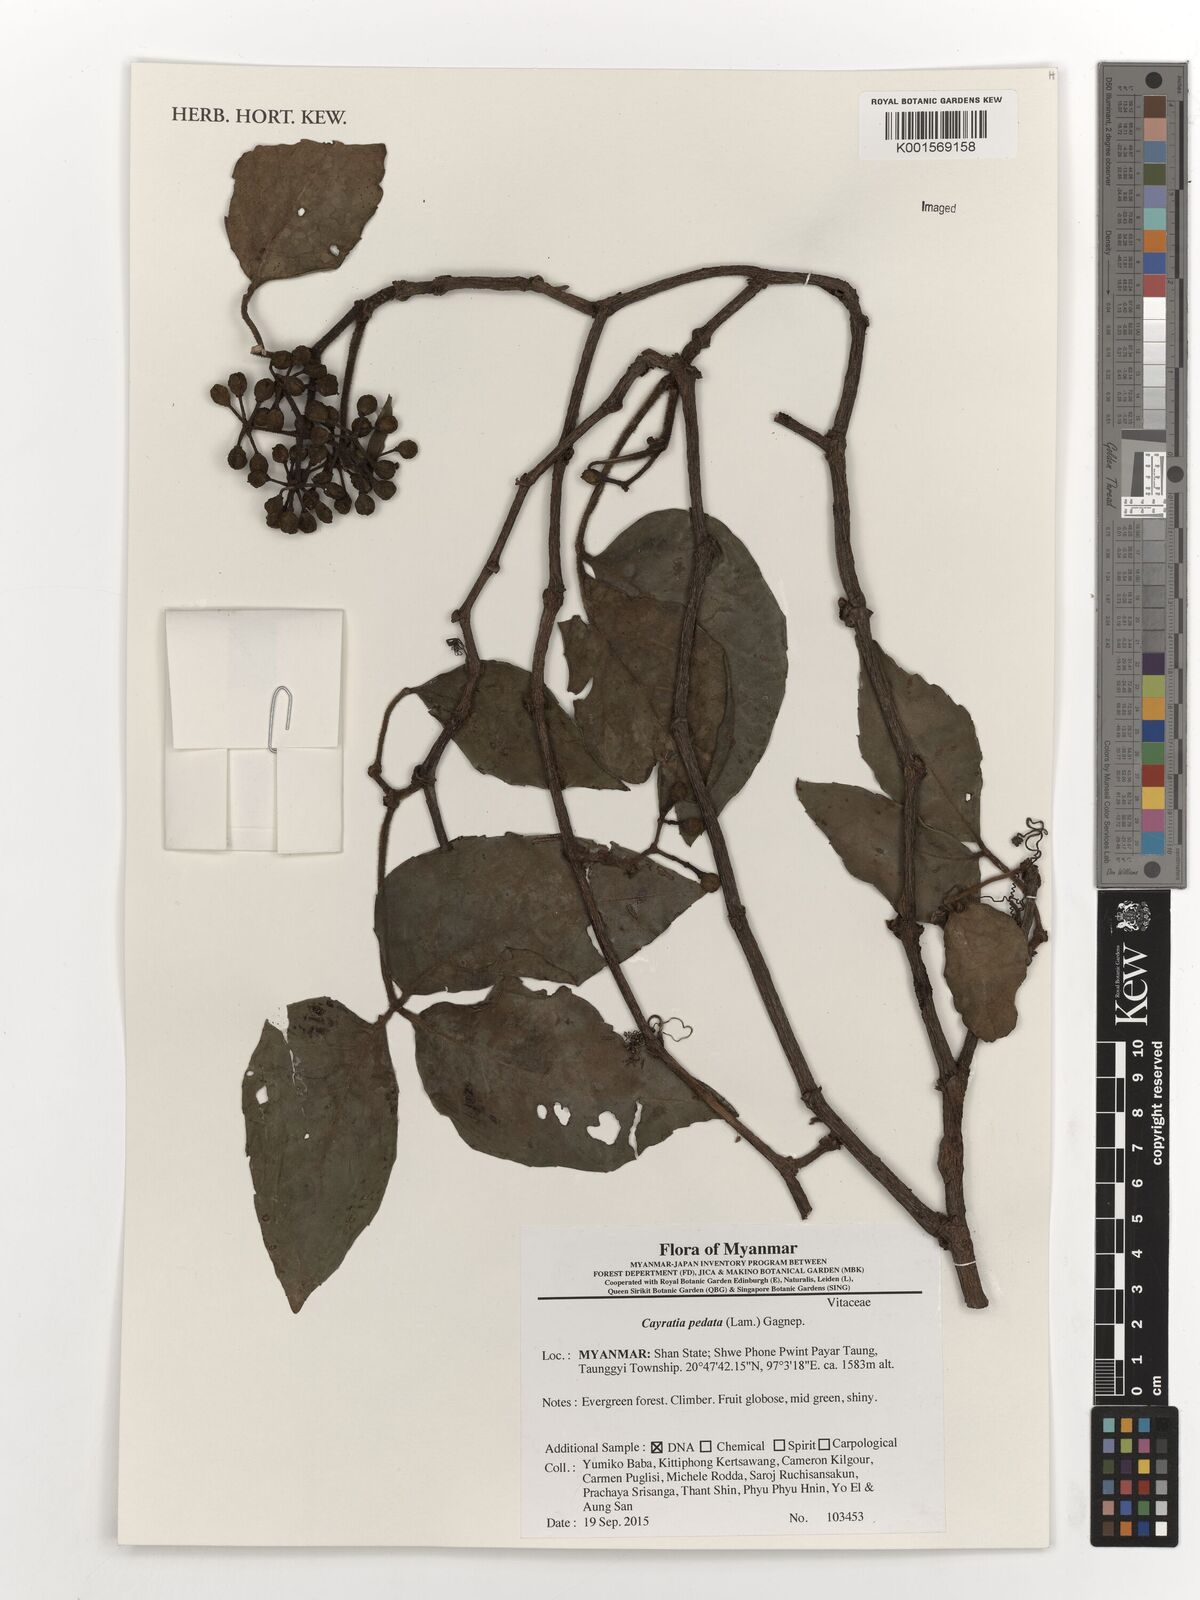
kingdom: Plantae
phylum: Tracheophyta
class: Magnoliopsida
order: Vitales
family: Vitaceae
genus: Cayratia
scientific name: Cayratia pedata
